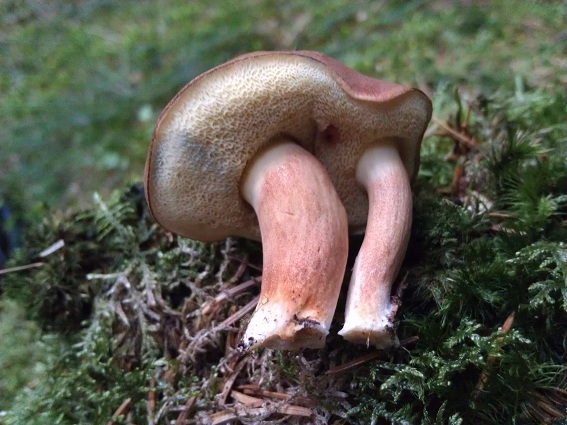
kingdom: Fungi
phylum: Basidiomycota
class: Agaricomycetes
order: Boletales
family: Boletaceae
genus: Imleria
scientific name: Imleria badia
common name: brunstokket rørhat
